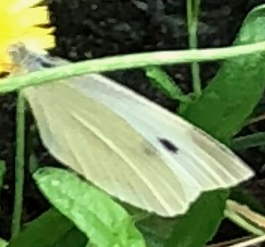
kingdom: Animalia
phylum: Arthropoda
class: Insecta
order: Lepidoptera
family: Pieridae
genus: Pieris
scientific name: Pieris rapae
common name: Cabbage White
